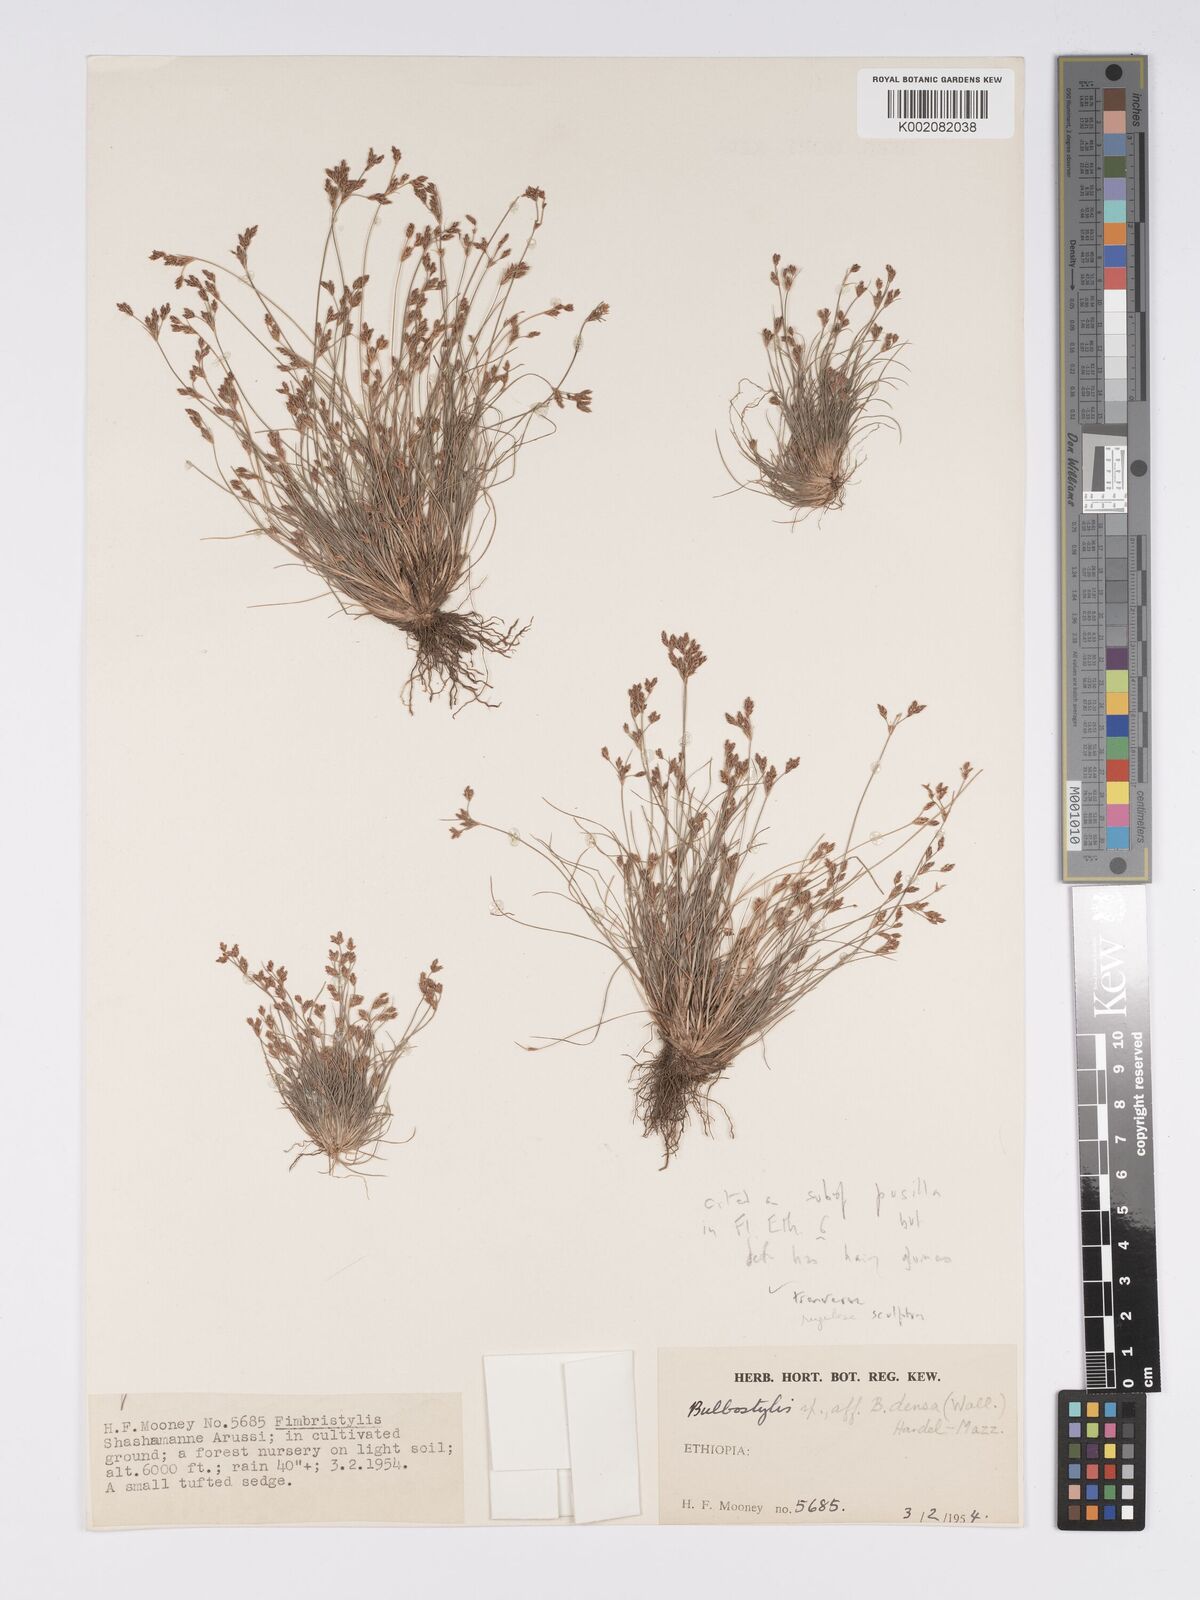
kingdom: Plantae
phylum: Tracheophyta
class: Liliopsida
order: Poales
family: Cyperaceae
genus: Bulbostylis
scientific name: Bulbostylis pusilla
